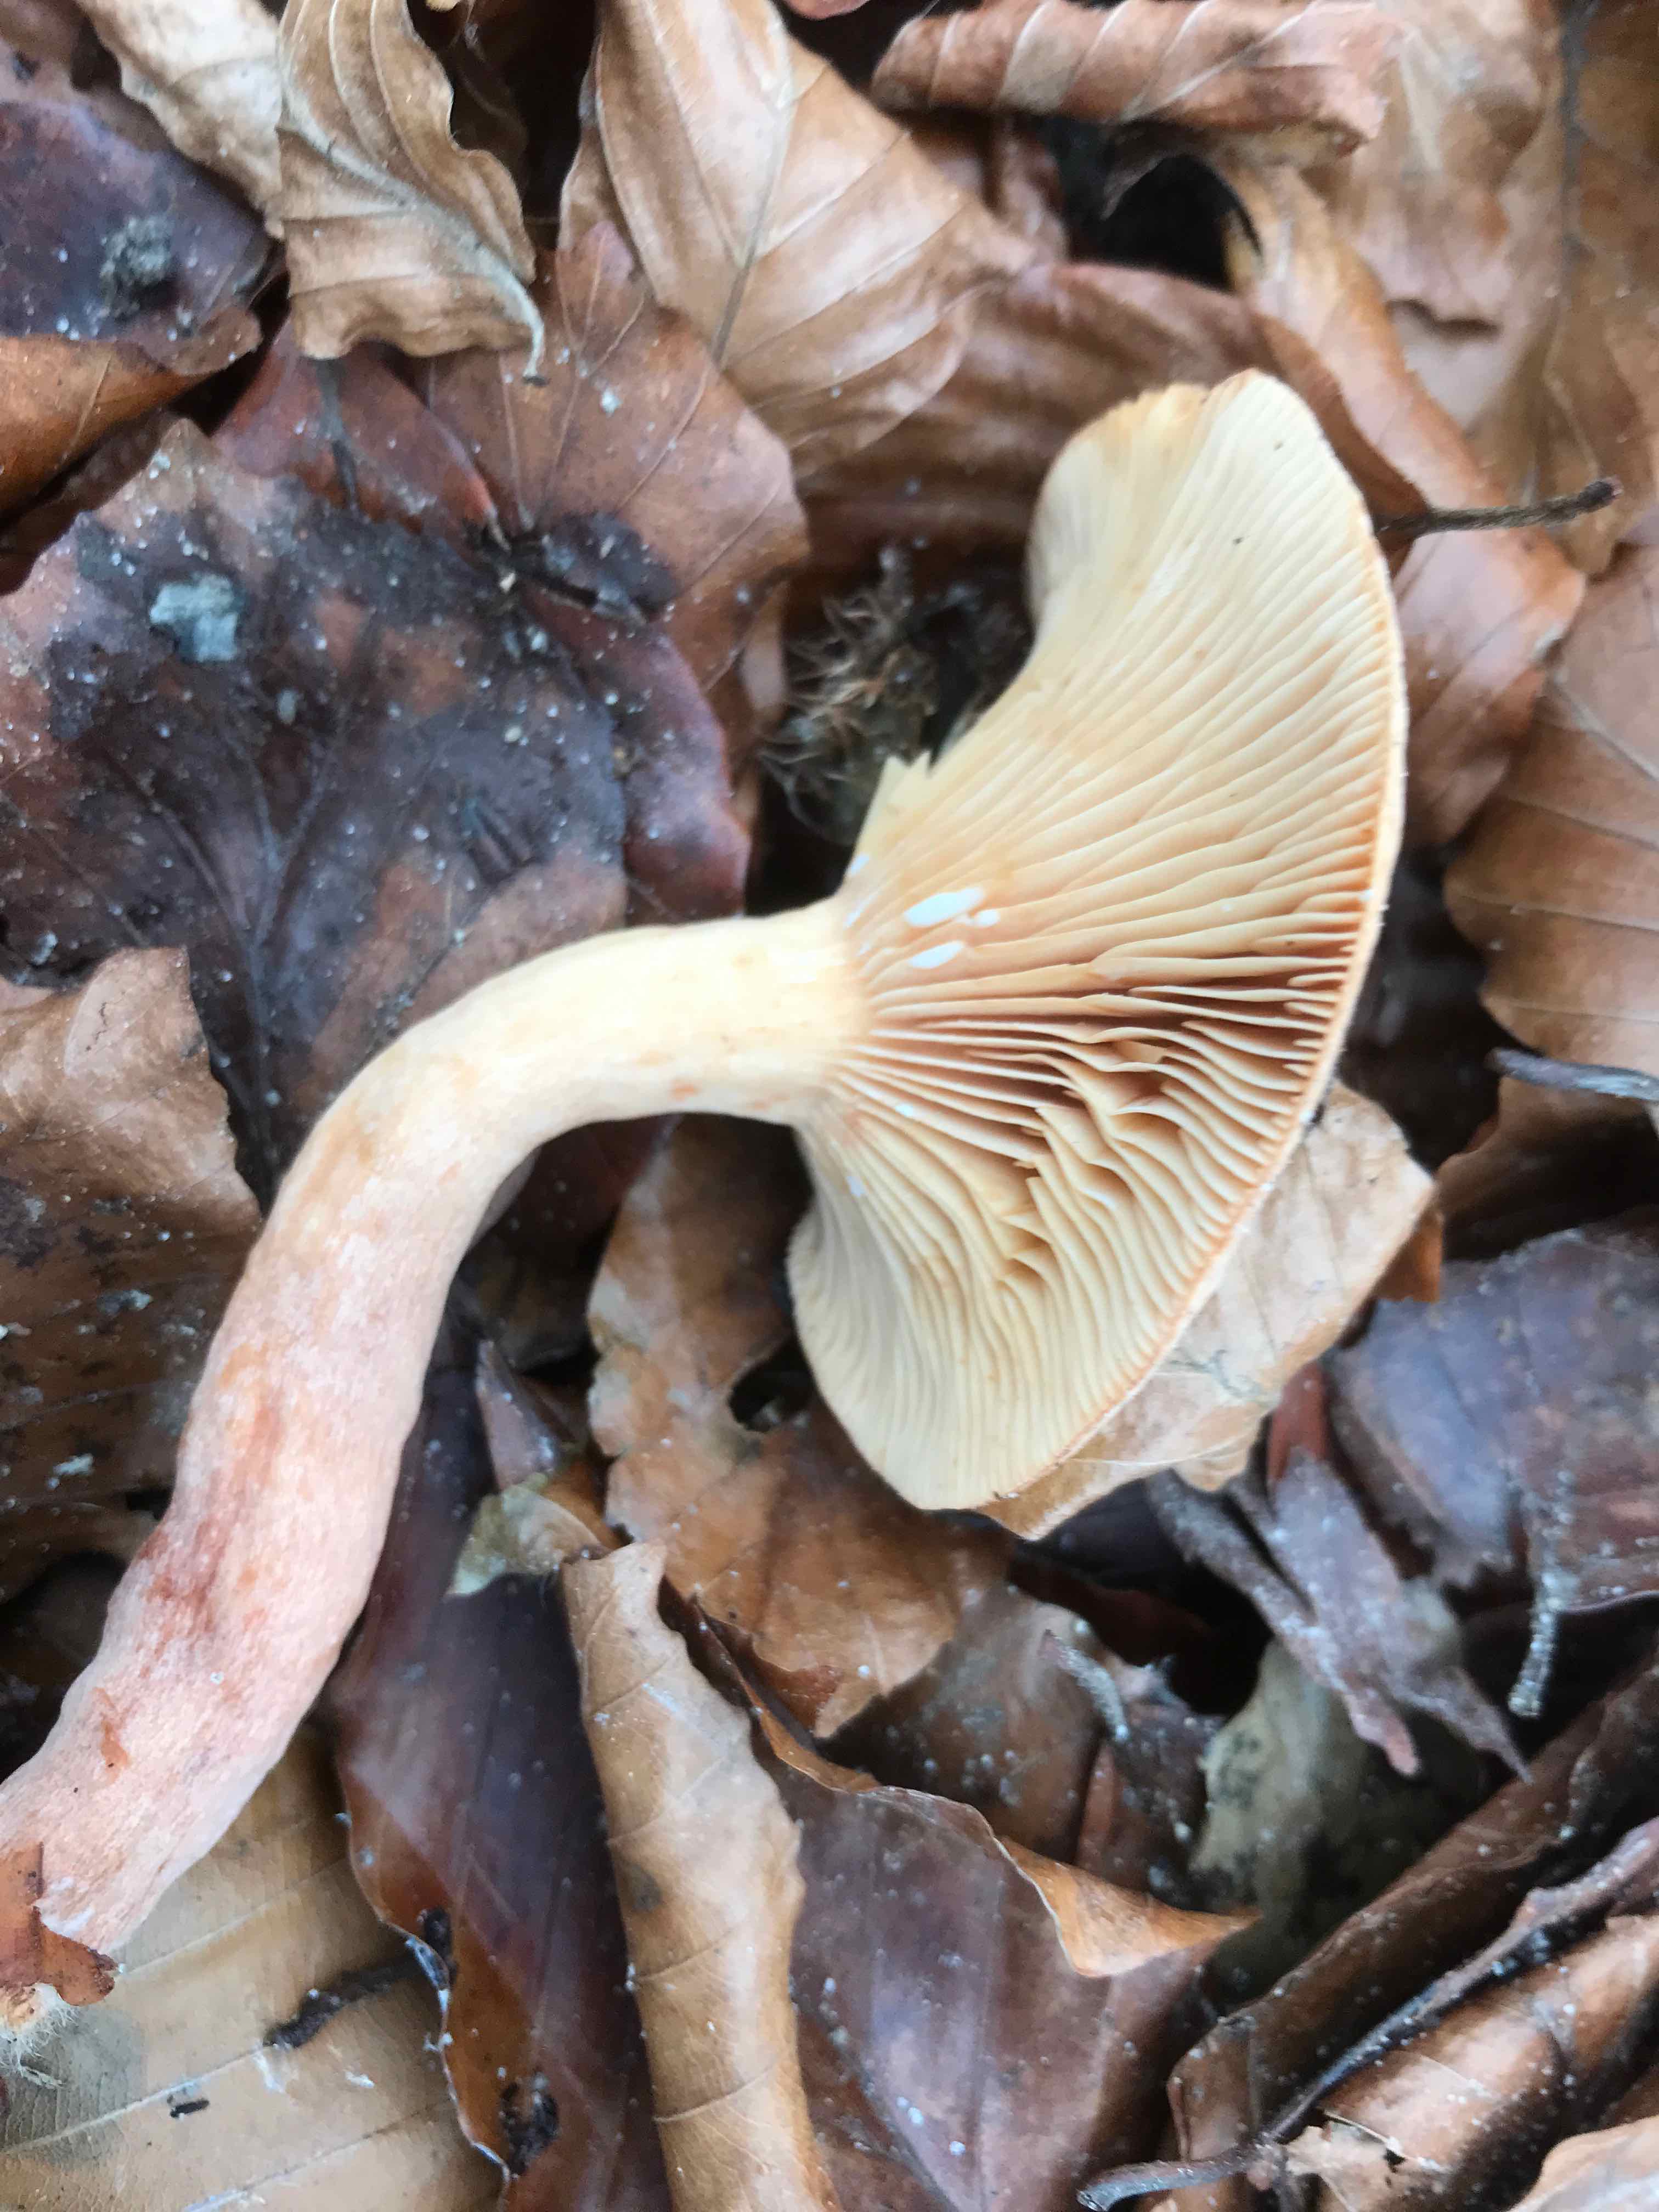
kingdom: Fungi
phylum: Basidiomycota
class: Agaricomycetes
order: Russulales
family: Russulaceae
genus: Lactarius
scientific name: Lactarius subdulcis
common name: sødlig mælkehat
